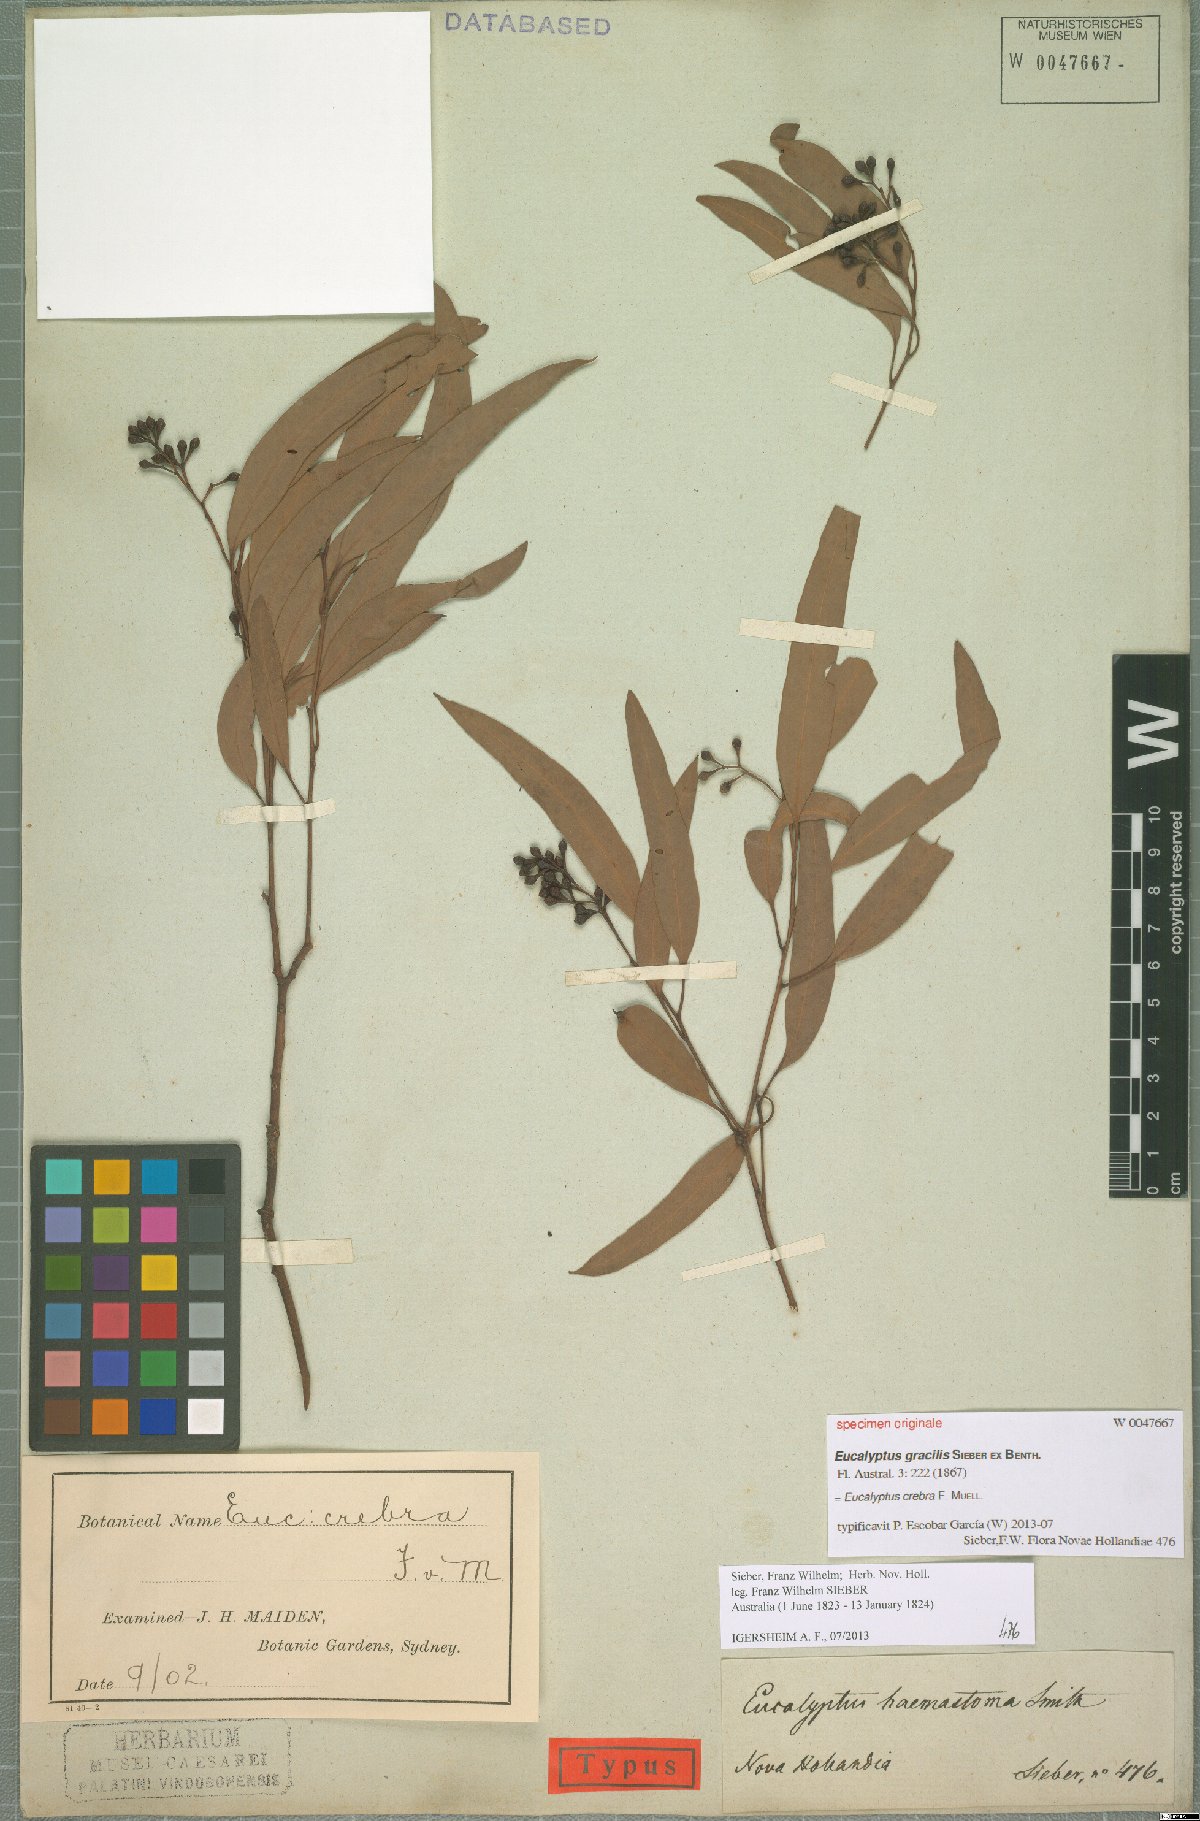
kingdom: Plantae
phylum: Tracheophyta
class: Magnoliopsida
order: Myrtales
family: Myrtaceae
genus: Eucalyptus
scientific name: Eucalyptus crebra
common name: Narrowleaf red ironbark
